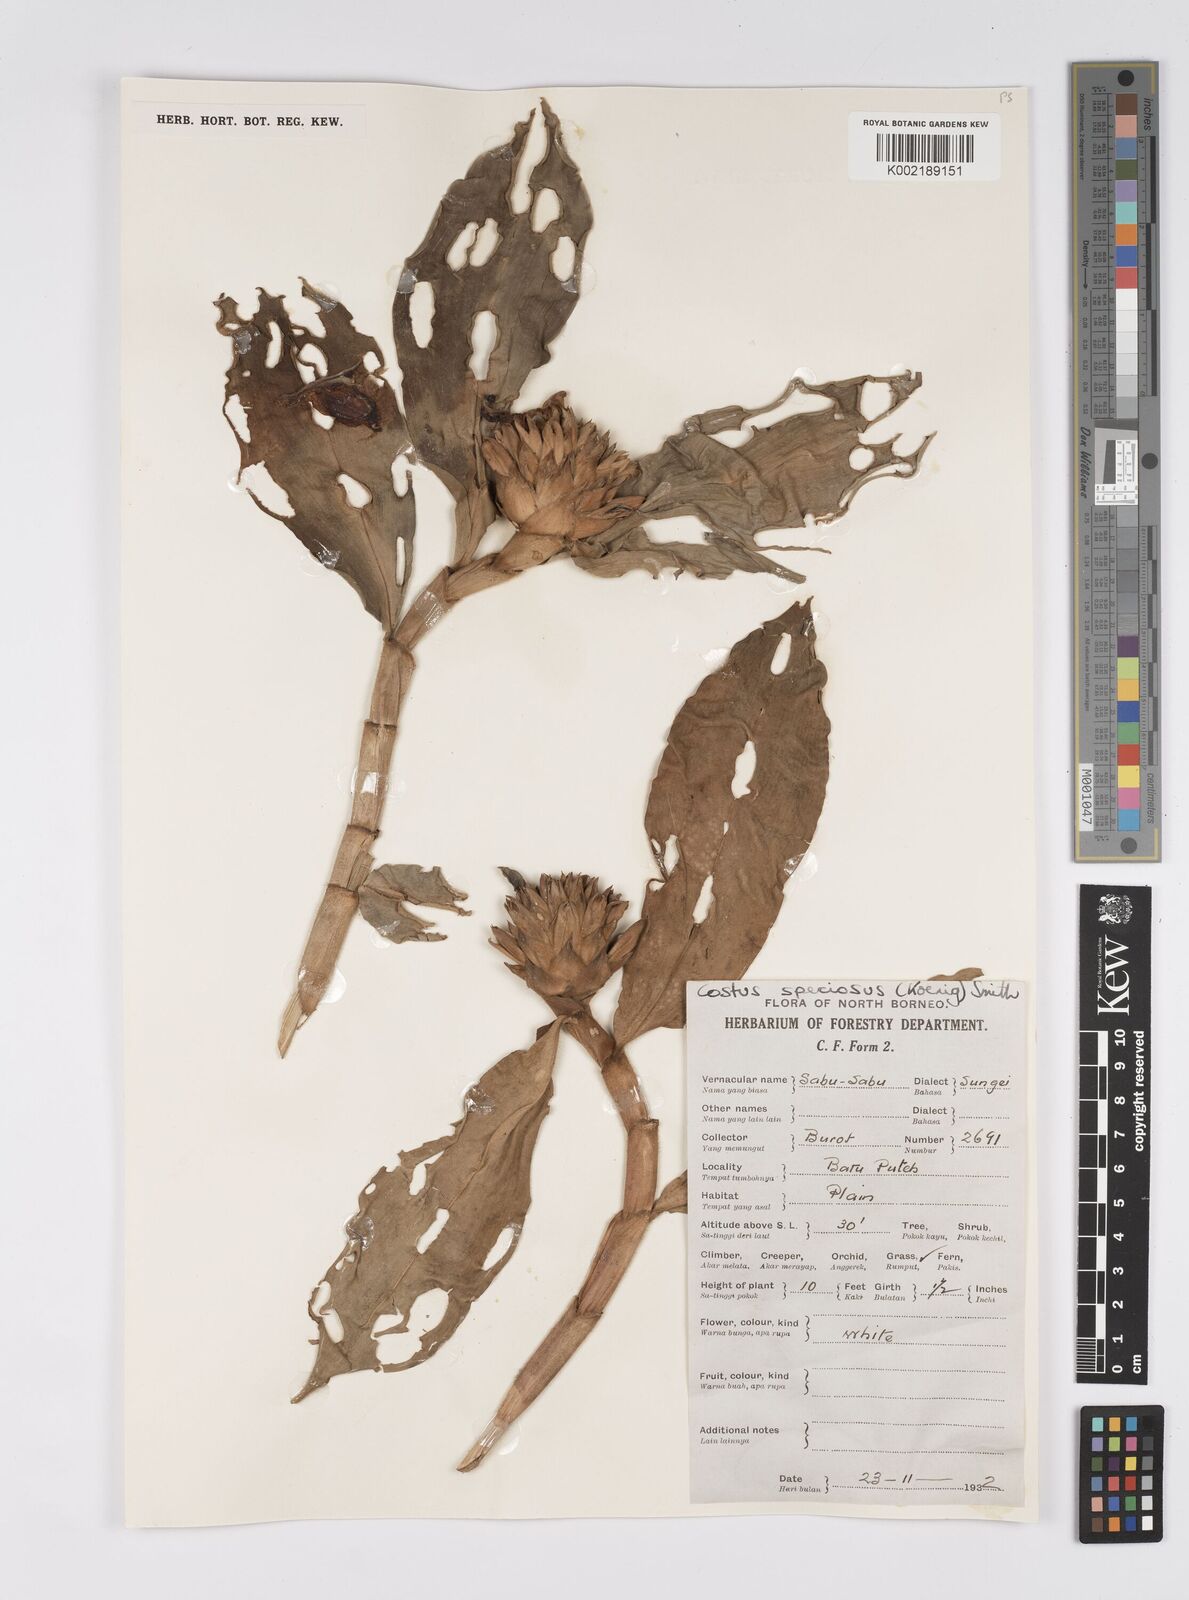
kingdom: Plantae
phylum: Tracheophyta
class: Liliopsida
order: Zingiberales
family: Costaceae
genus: Hellenia
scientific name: Hellenia speciosa
